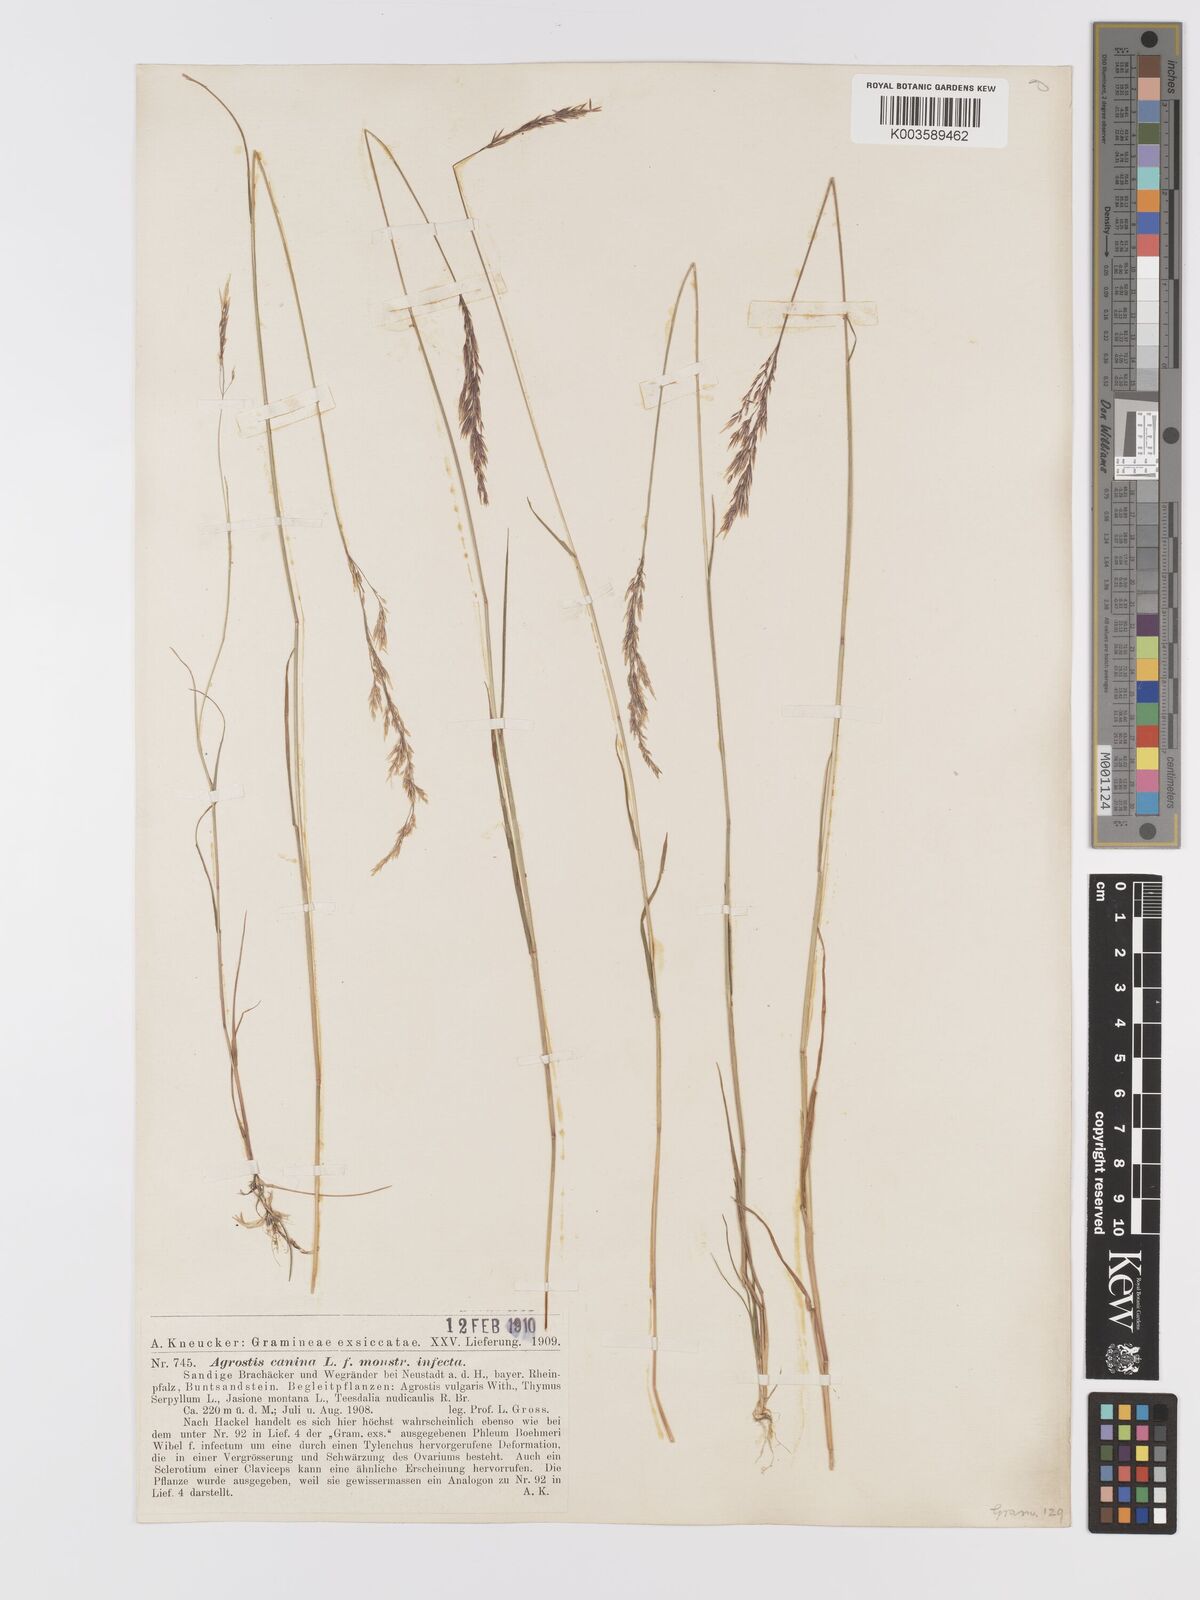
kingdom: Plantae
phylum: Tracheophyta
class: Liliopsida
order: Poales
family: Poaceae
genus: Agrostis
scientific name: Agrostis canina
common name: Velvet bent
